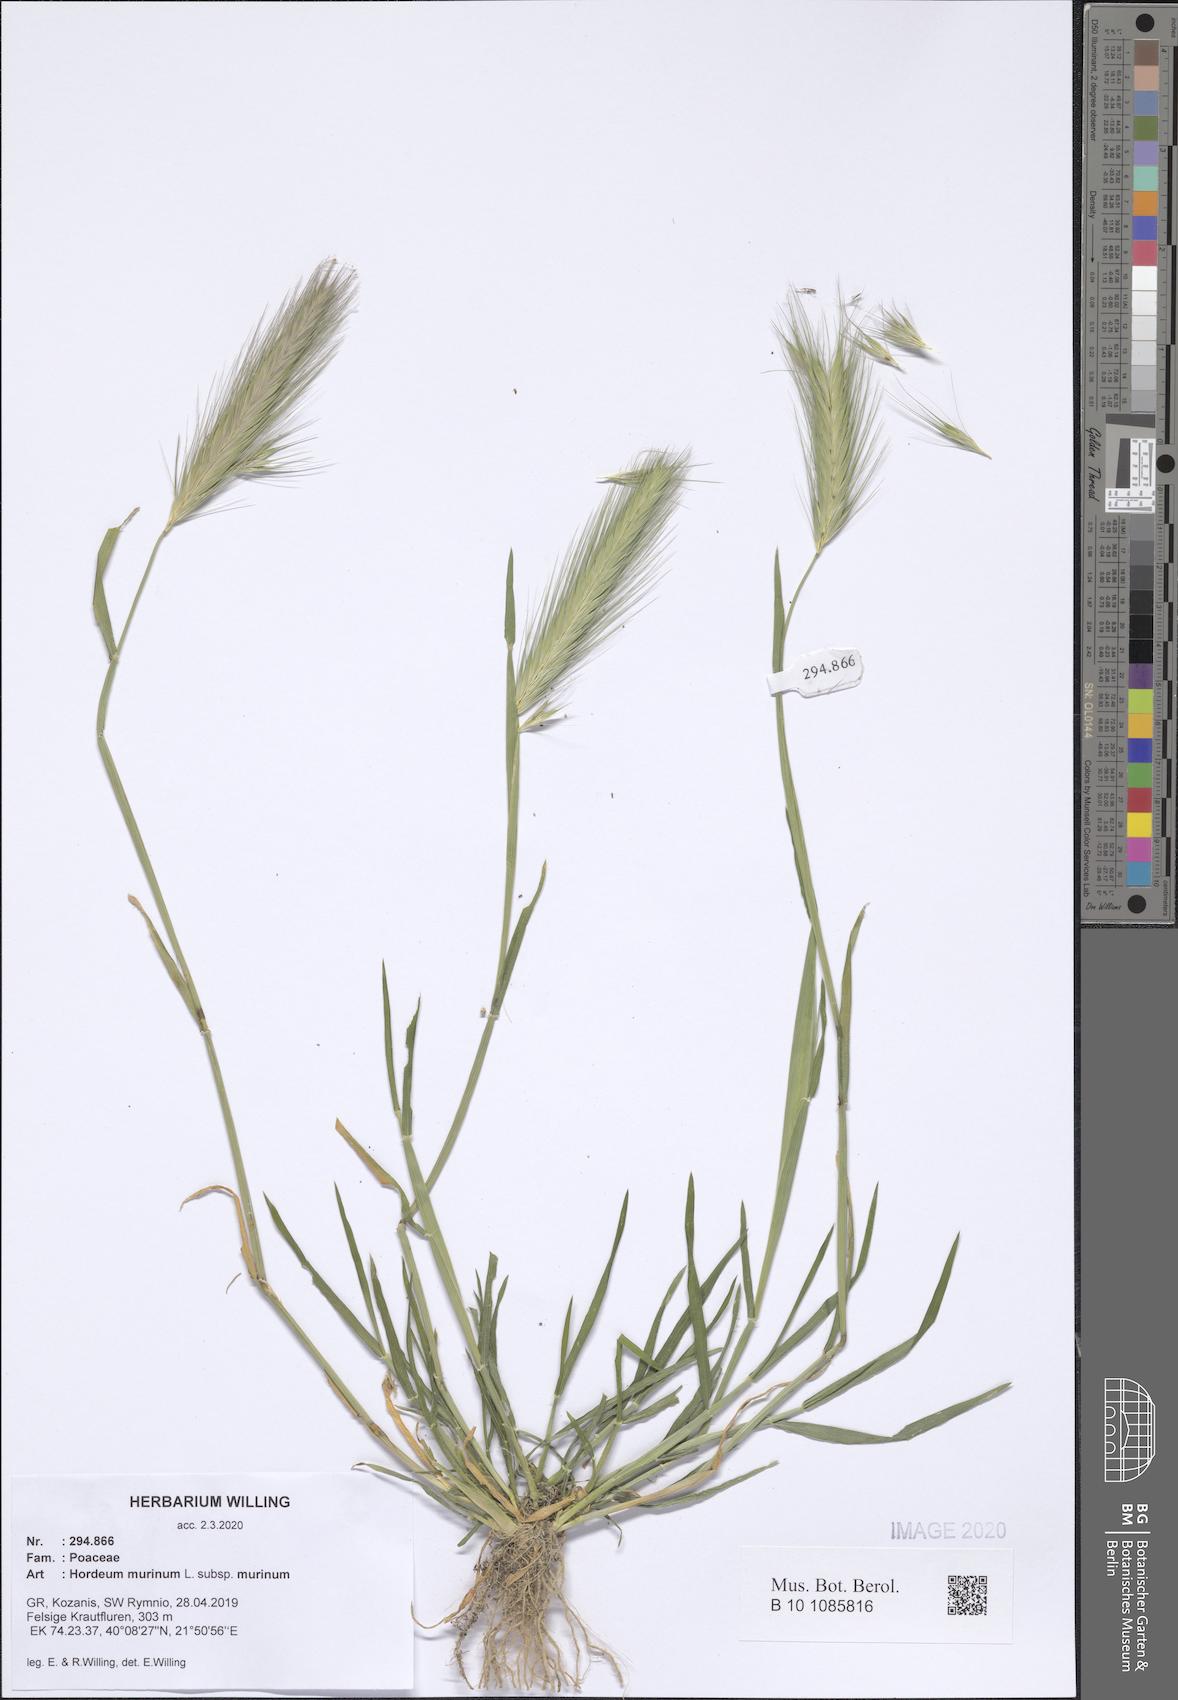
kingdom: Plantae
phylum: Tracheophyta
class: Liliopsida
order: Poales
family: Poaceae
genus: Hordeum
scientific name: Hordeum murinum
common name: Wall barley
